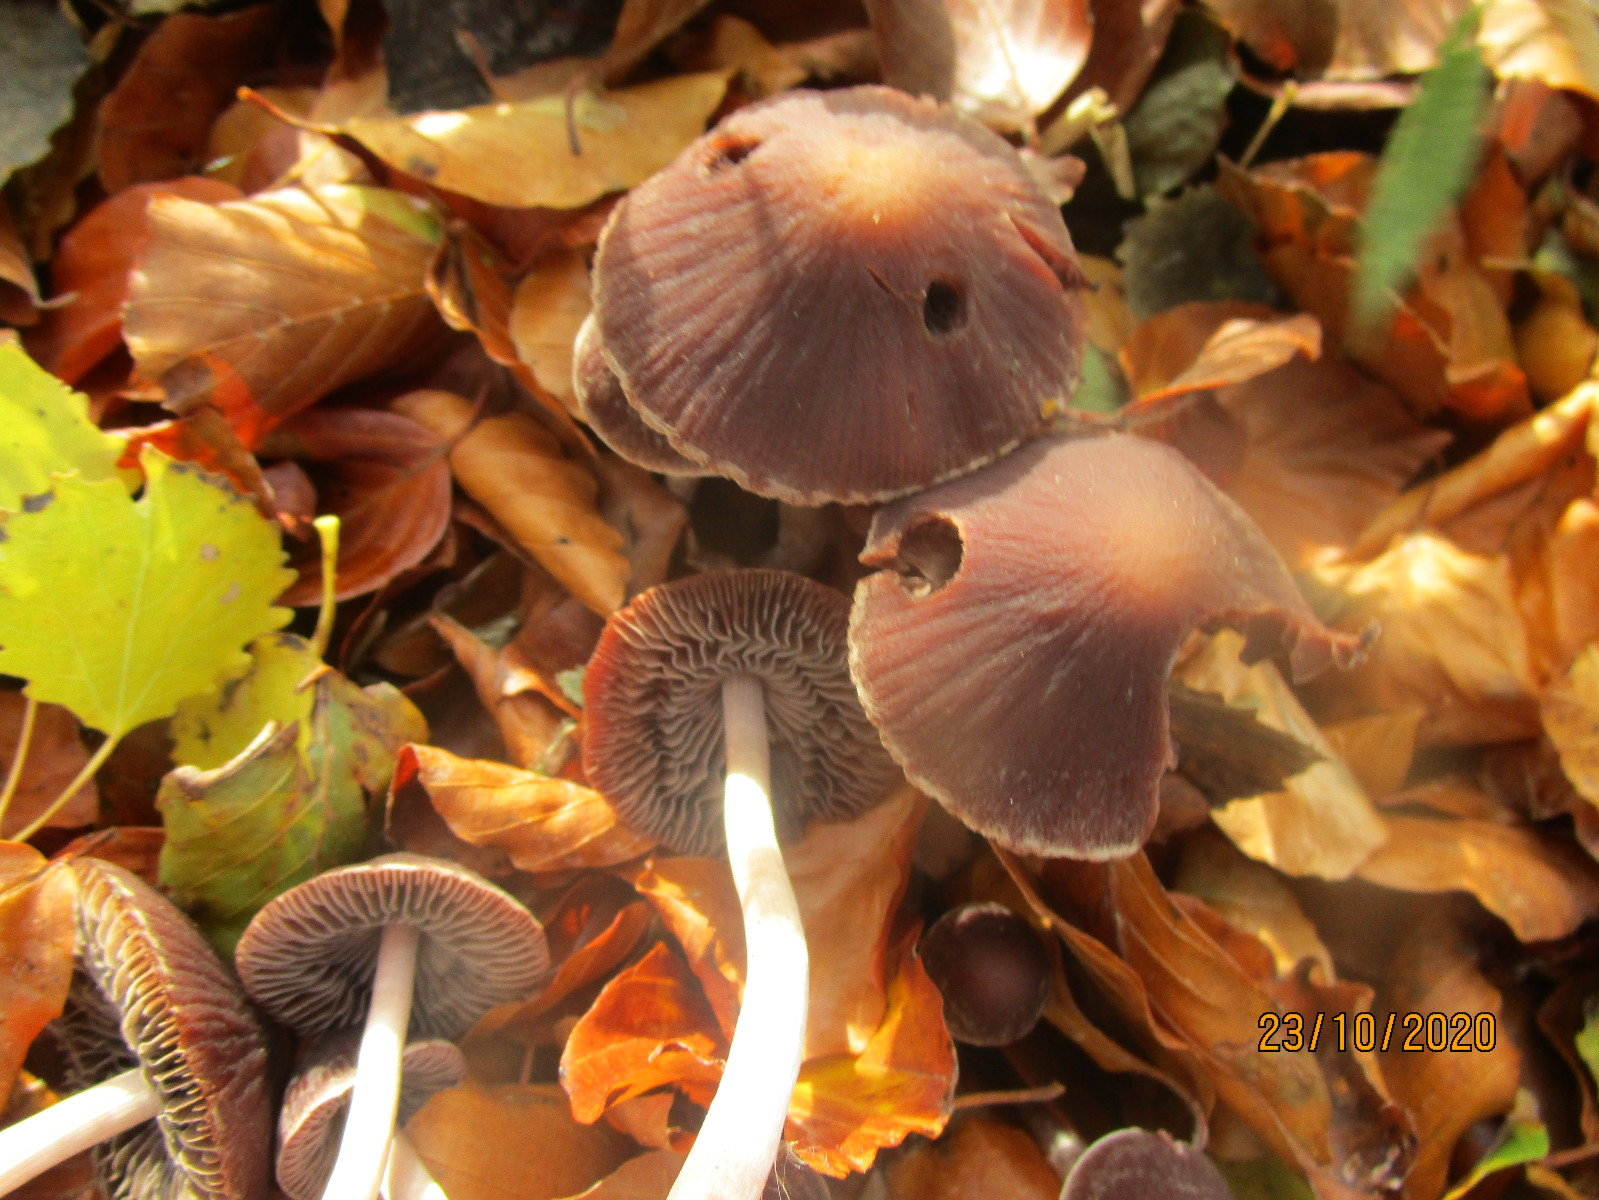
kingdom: Fungi
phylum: Basidiomycota
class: Agaricomycetes
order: Agaricales
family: Psathyrellaceae
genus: Psathyrella
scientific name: Psathyrella bipellis
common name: vinrød mørkhat
